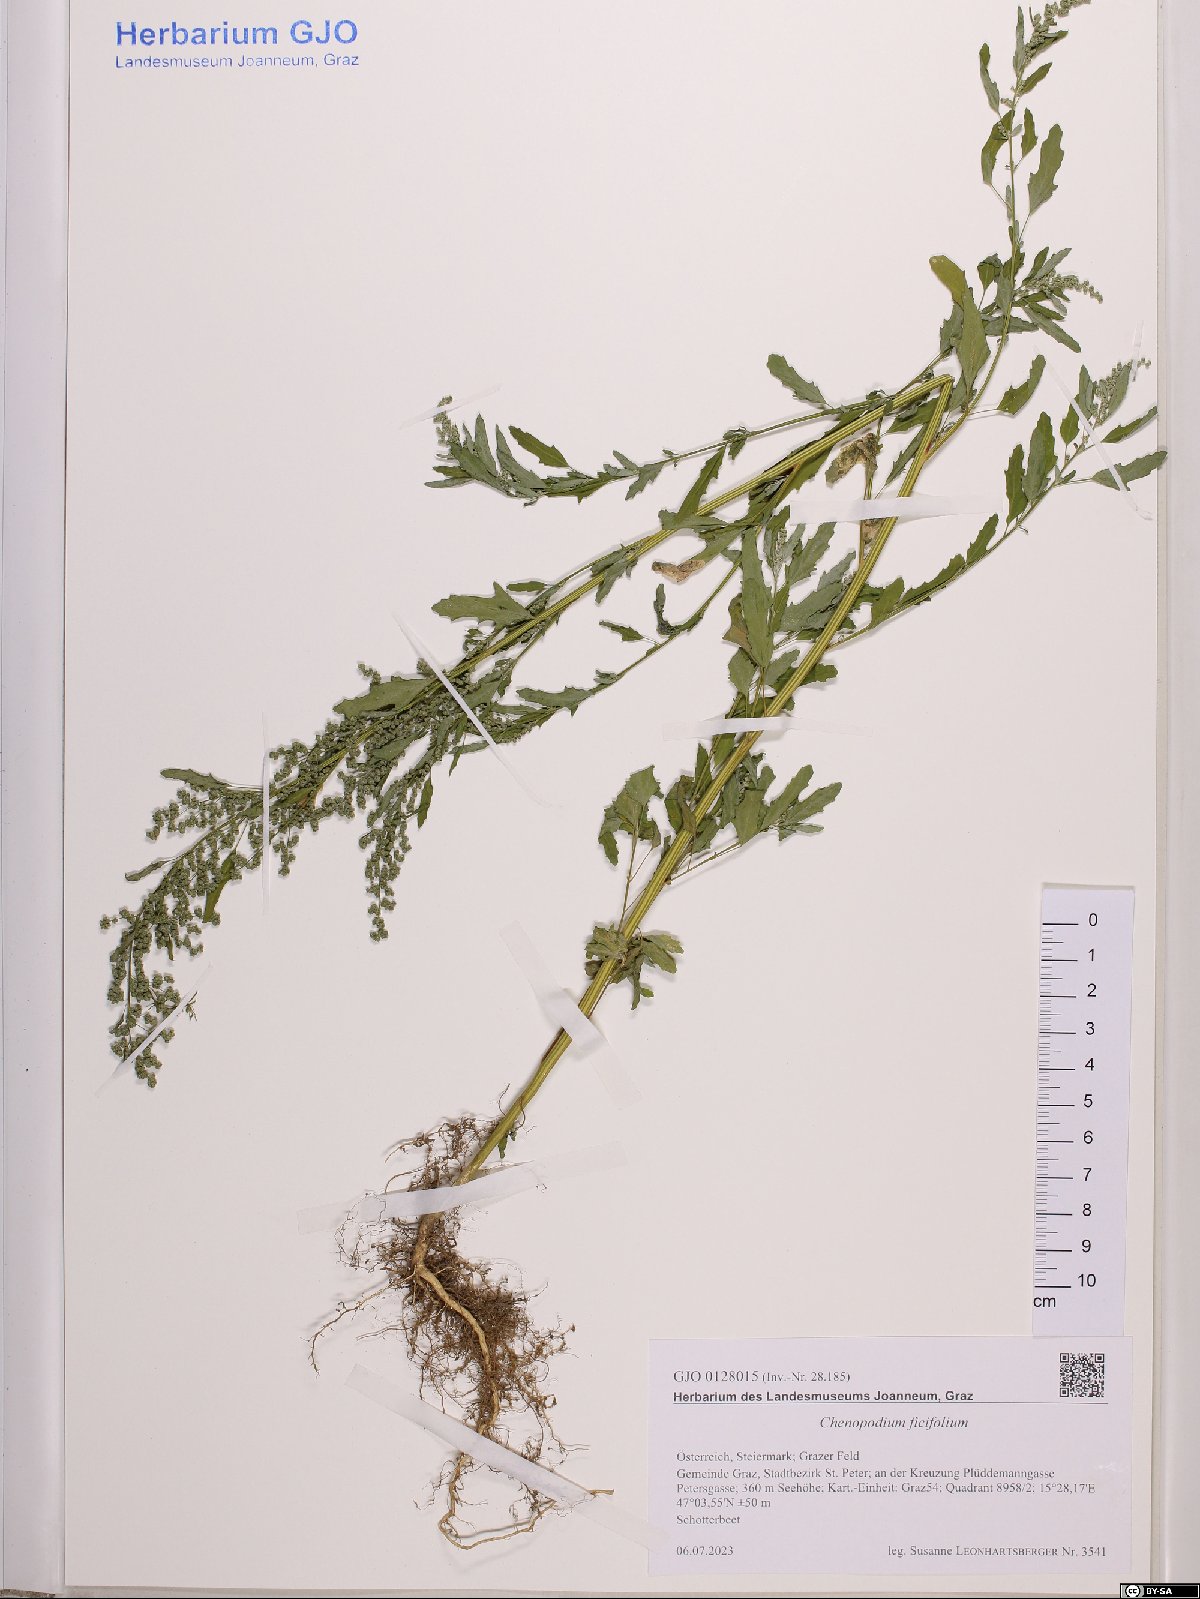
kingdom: Plantae
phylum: Tracheophyta
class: Magnoliopsida
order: Caryophyllales
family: Amaranthaceae
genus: Chenopodium
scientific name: Chenopodium ficifolium
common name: Fig-leaved goosefoot
